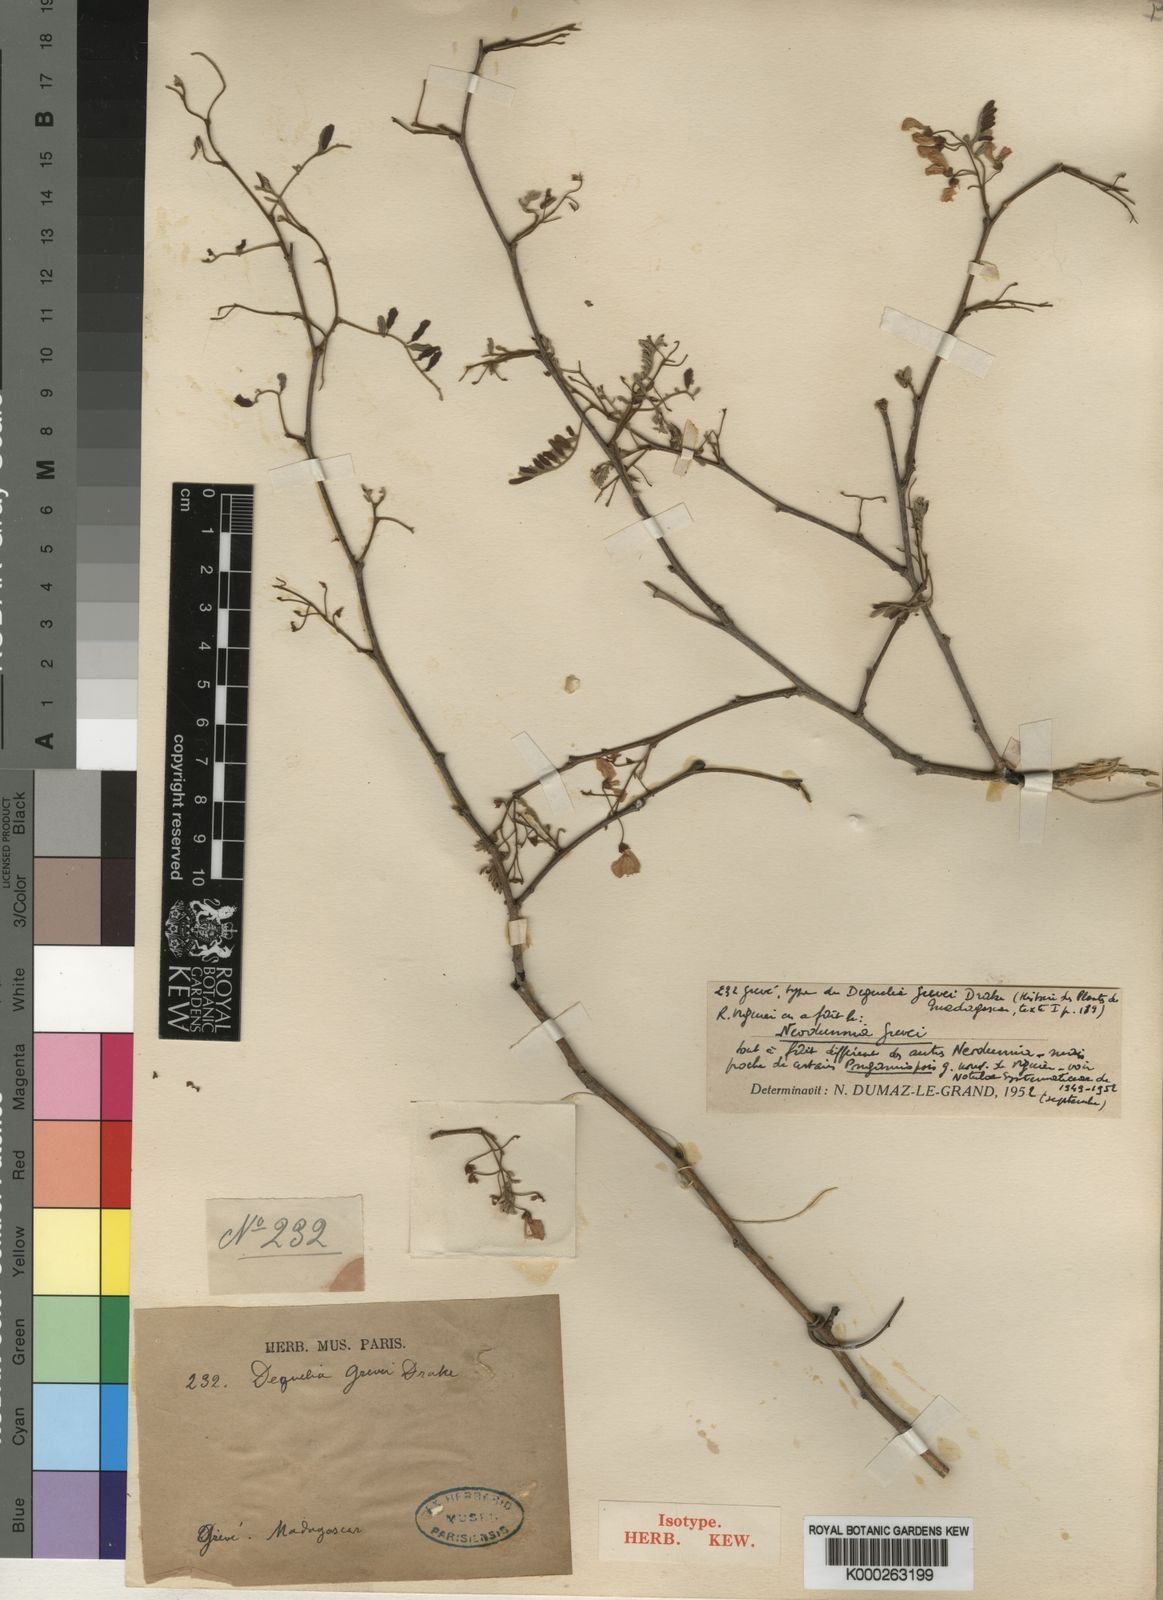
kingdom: Plantae
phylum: Tracheophyta
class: Magnoliopsida
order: Fabales
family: Fabaceae
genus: Pongamiopsis
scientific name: Pongamiopsis pervilleana
